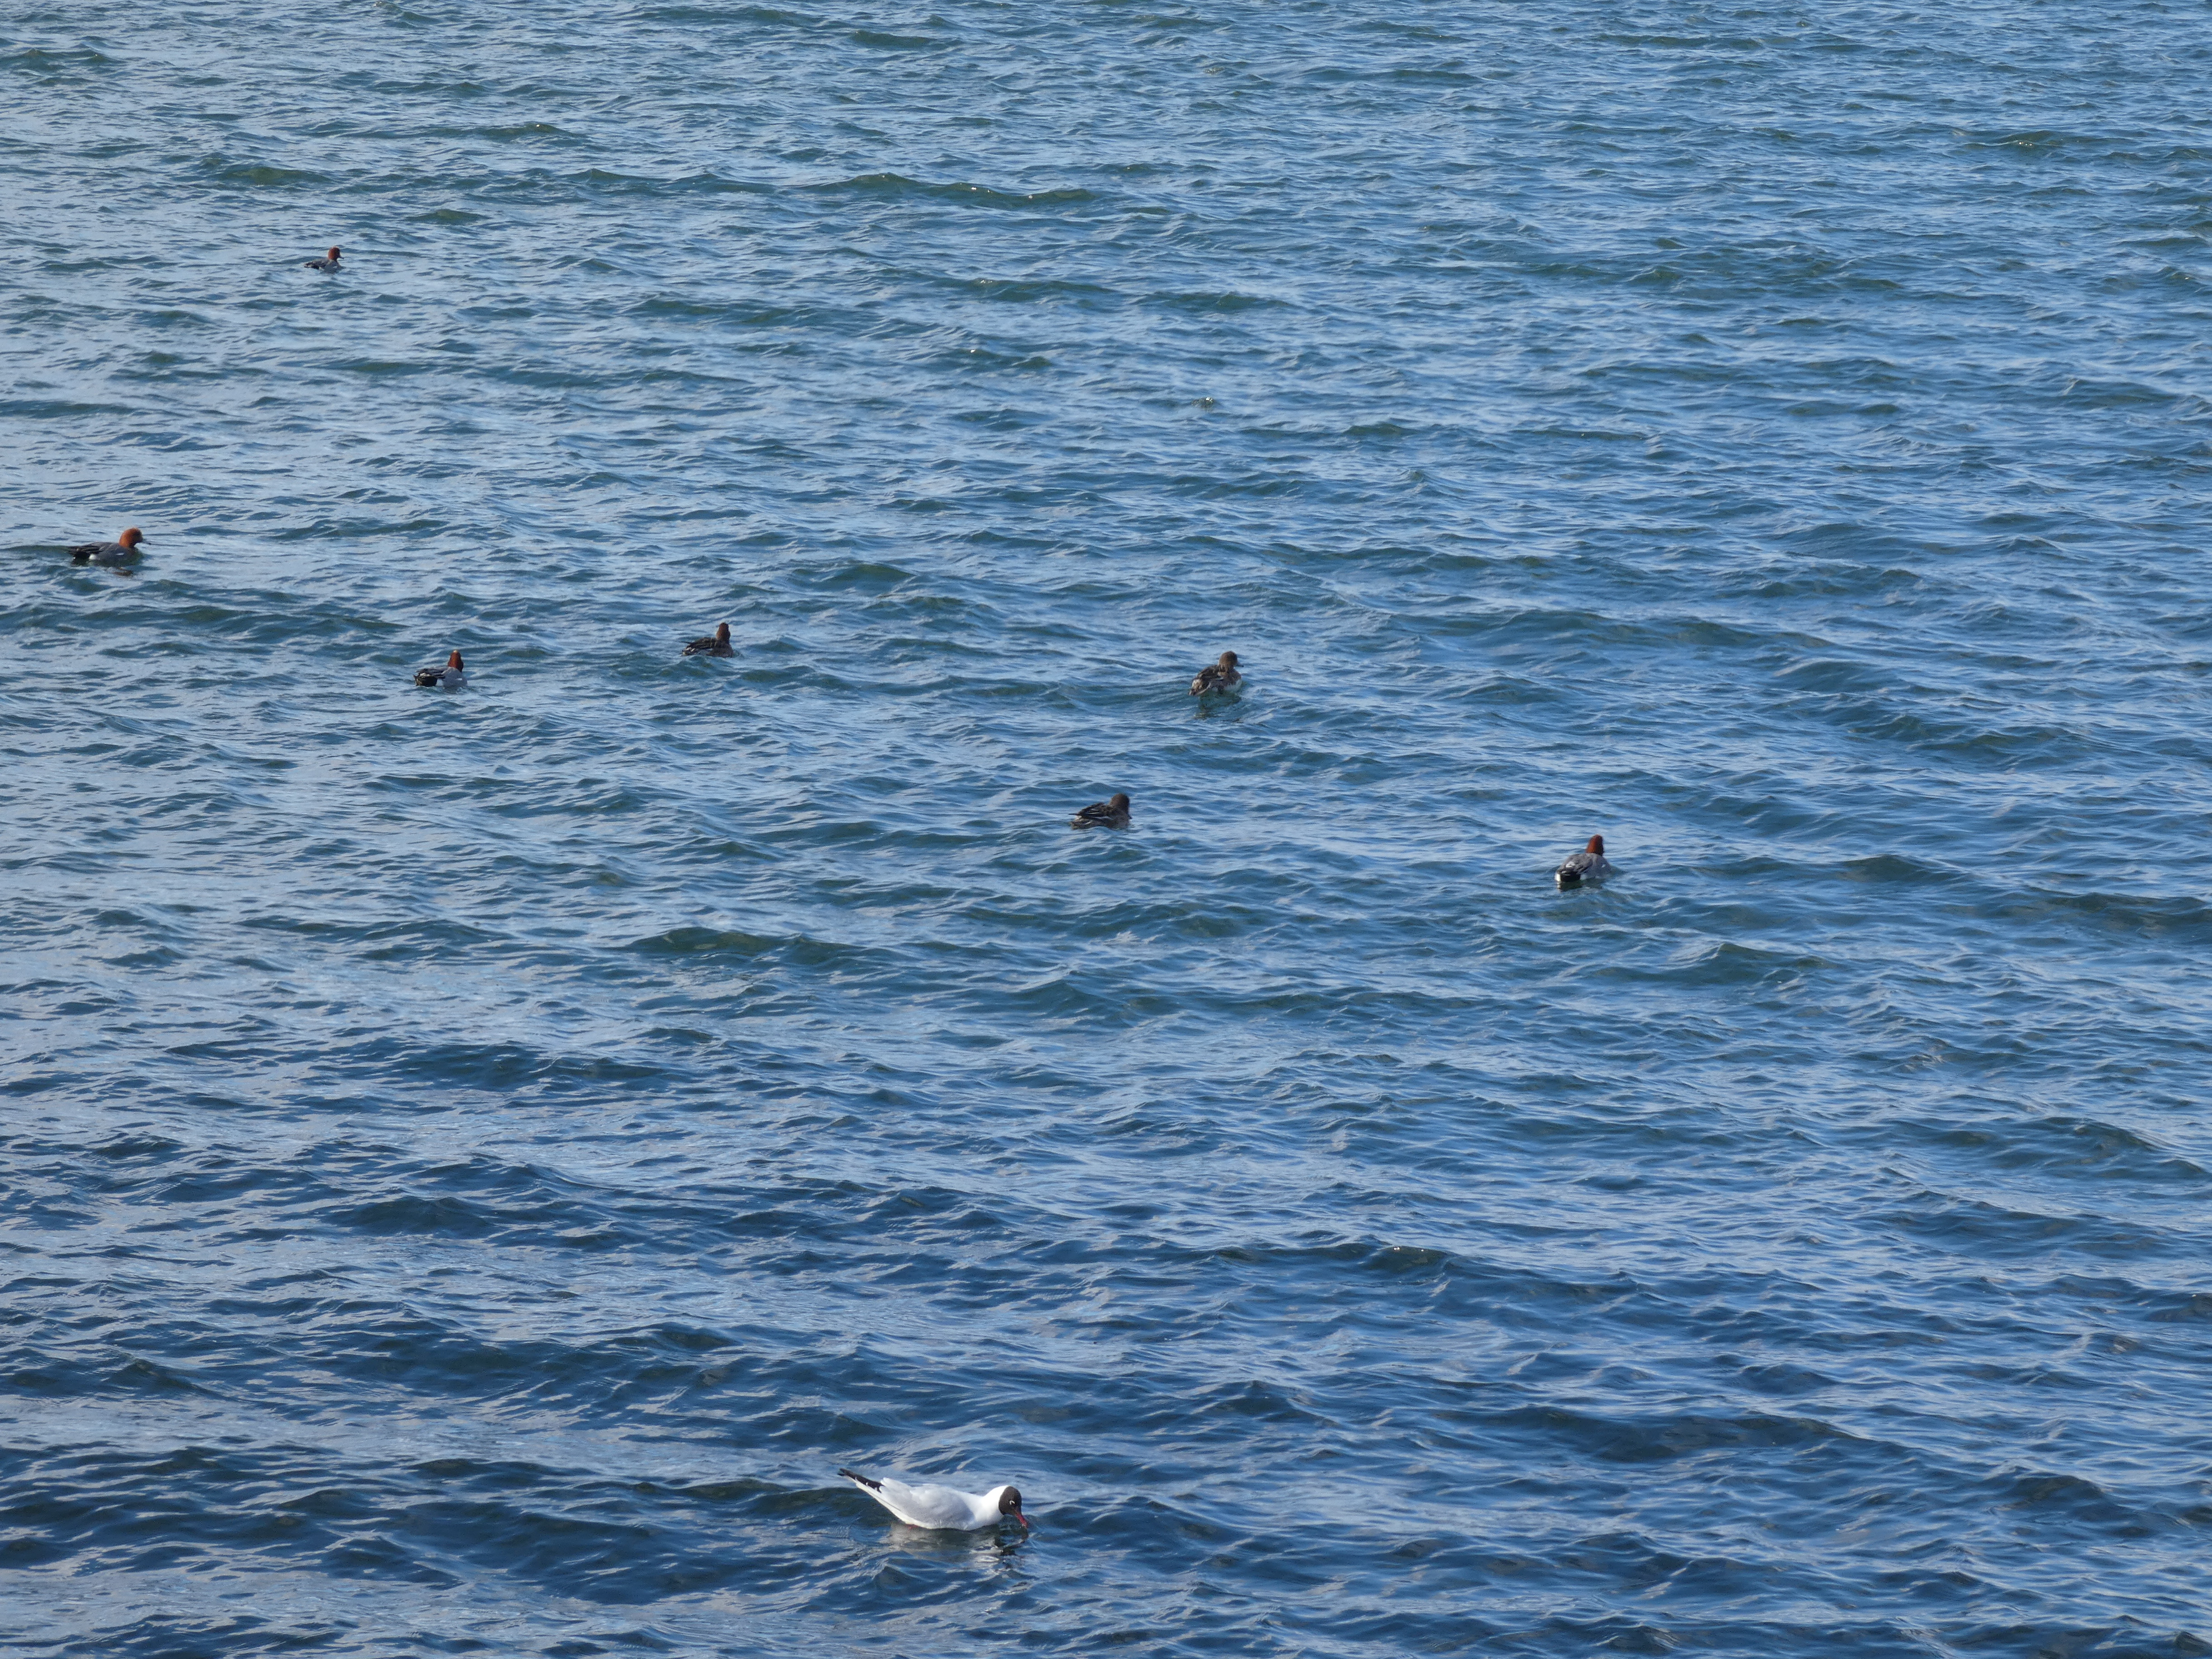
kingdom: Animalia
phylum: Chordata
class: Aves
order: Anseriformes
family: Anatidae
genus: Mareca
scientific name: Mareca penelope
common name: Pibeand
